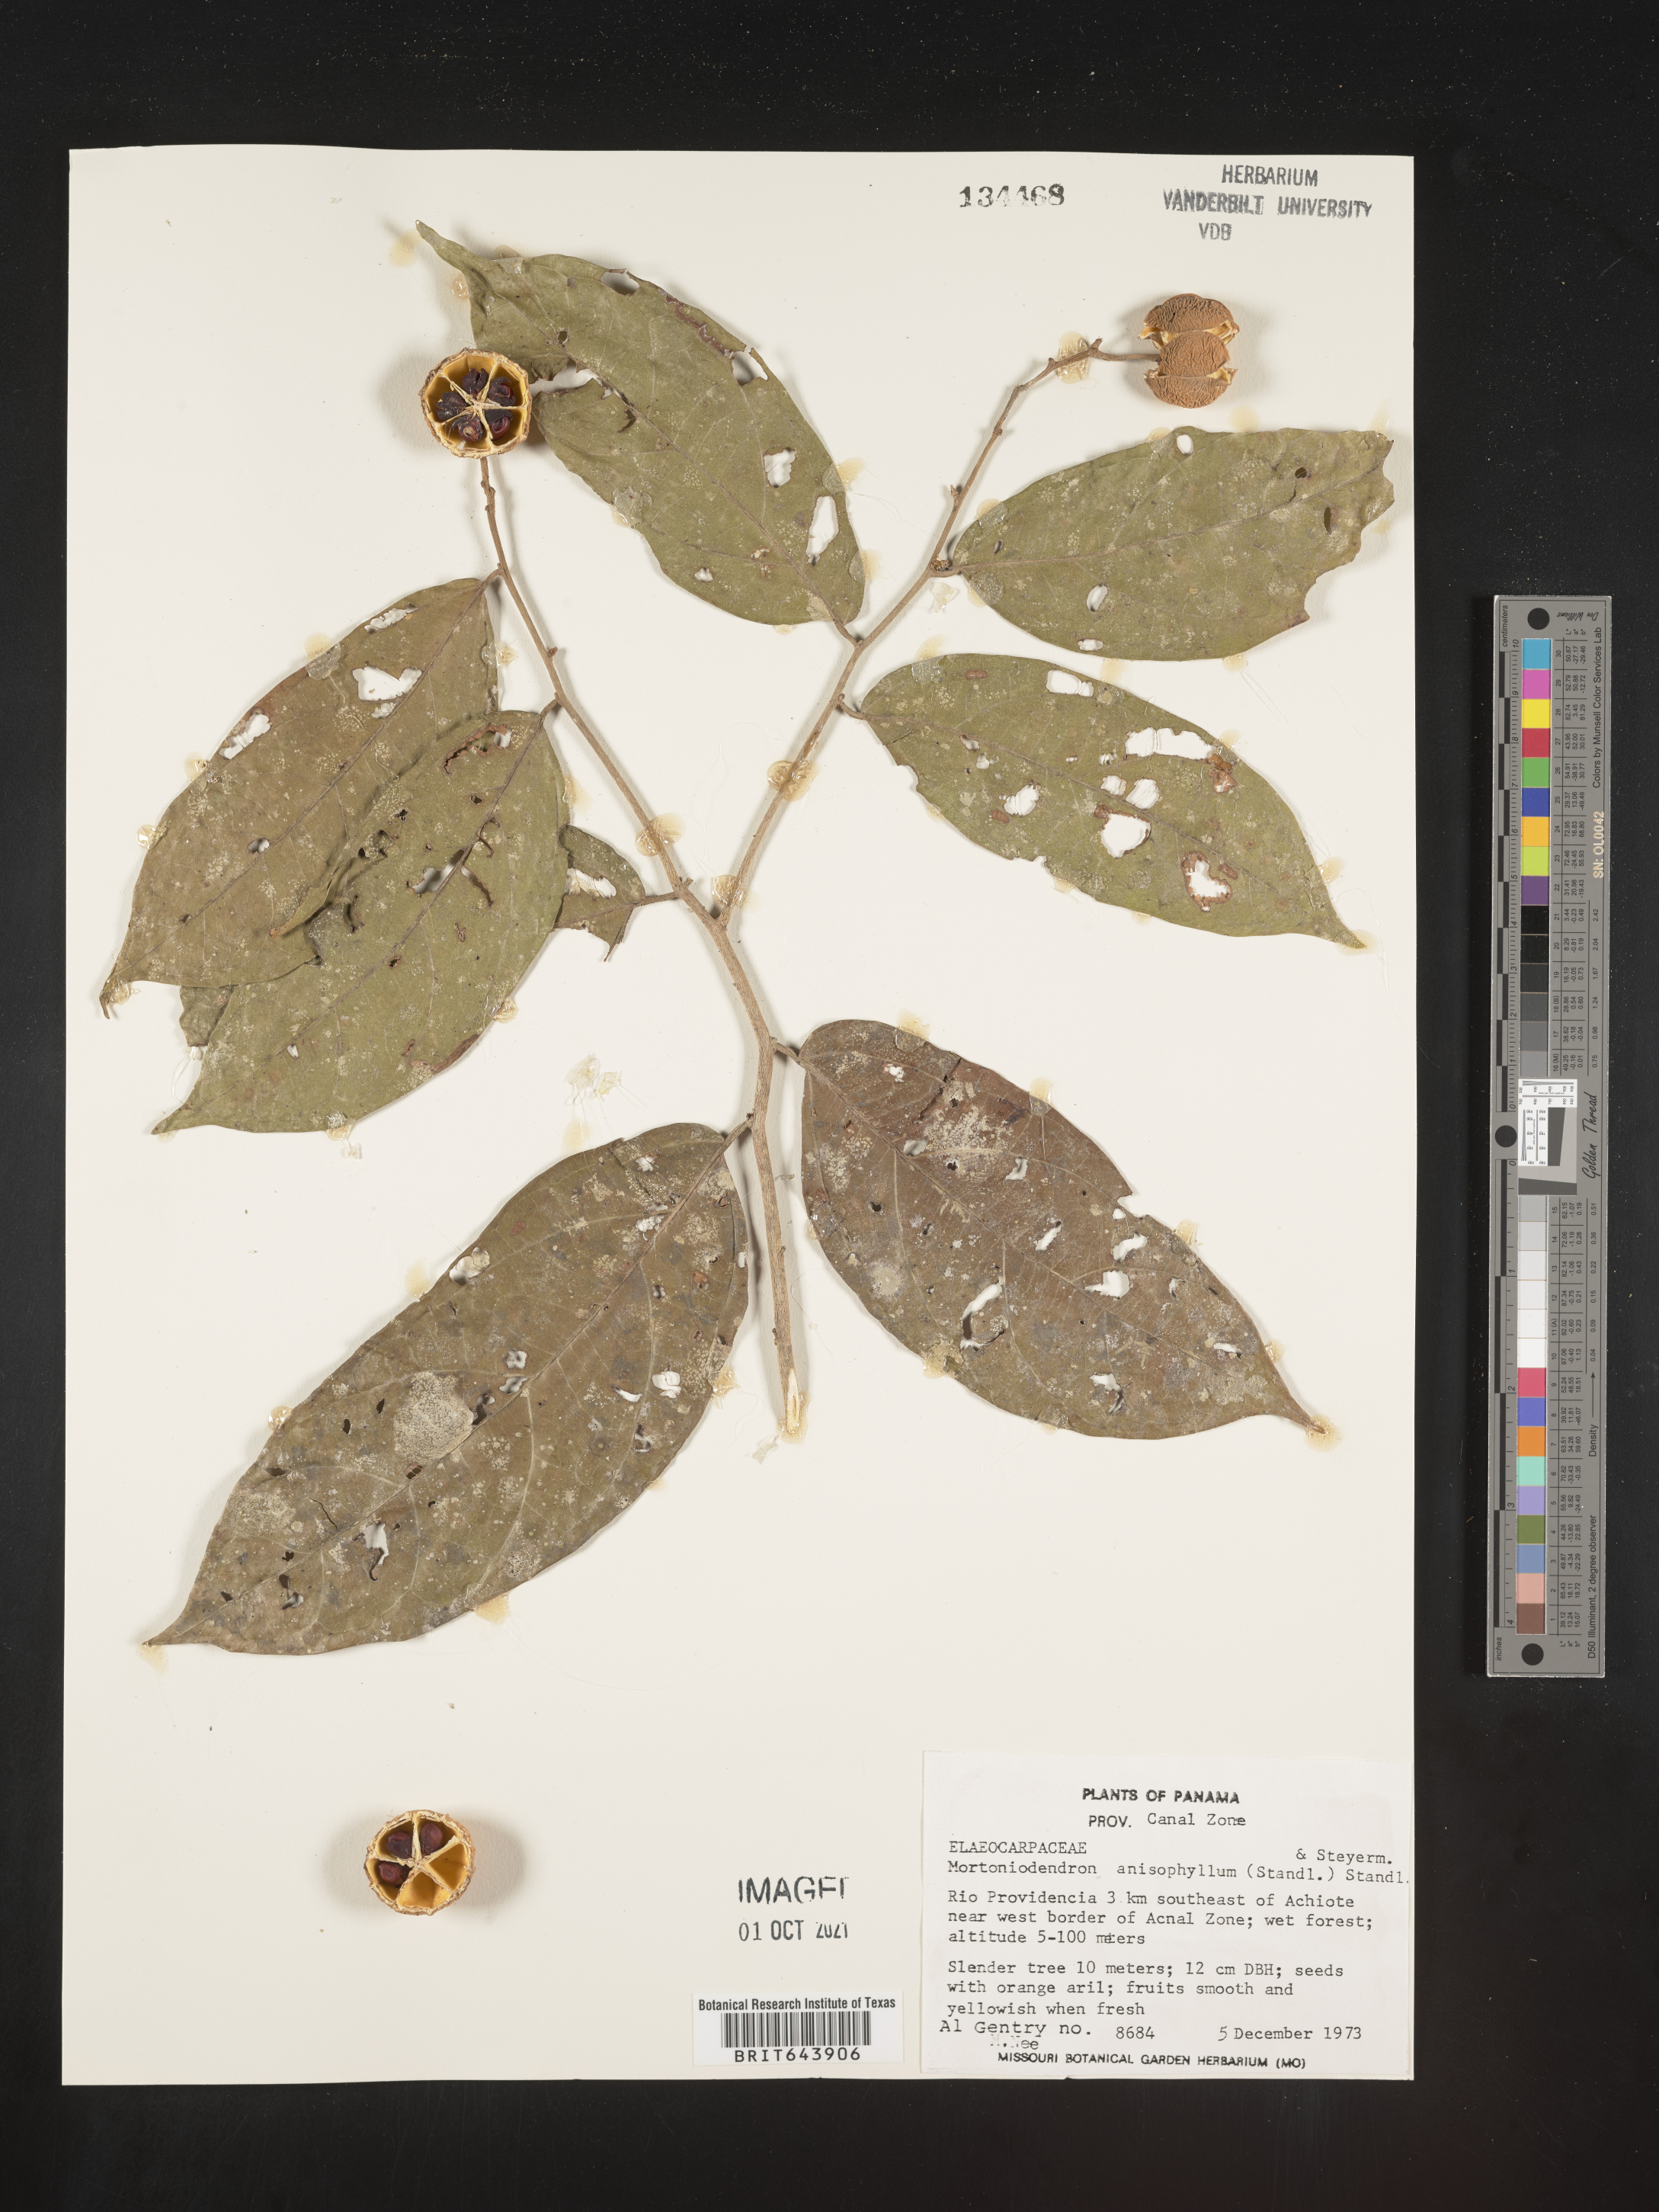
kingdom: Plantae
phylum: Tracheophyta
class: Magnoliopsida
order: Malvales
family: Malvaceae
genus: Mortoniodendron
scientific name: Mortoniodendron
